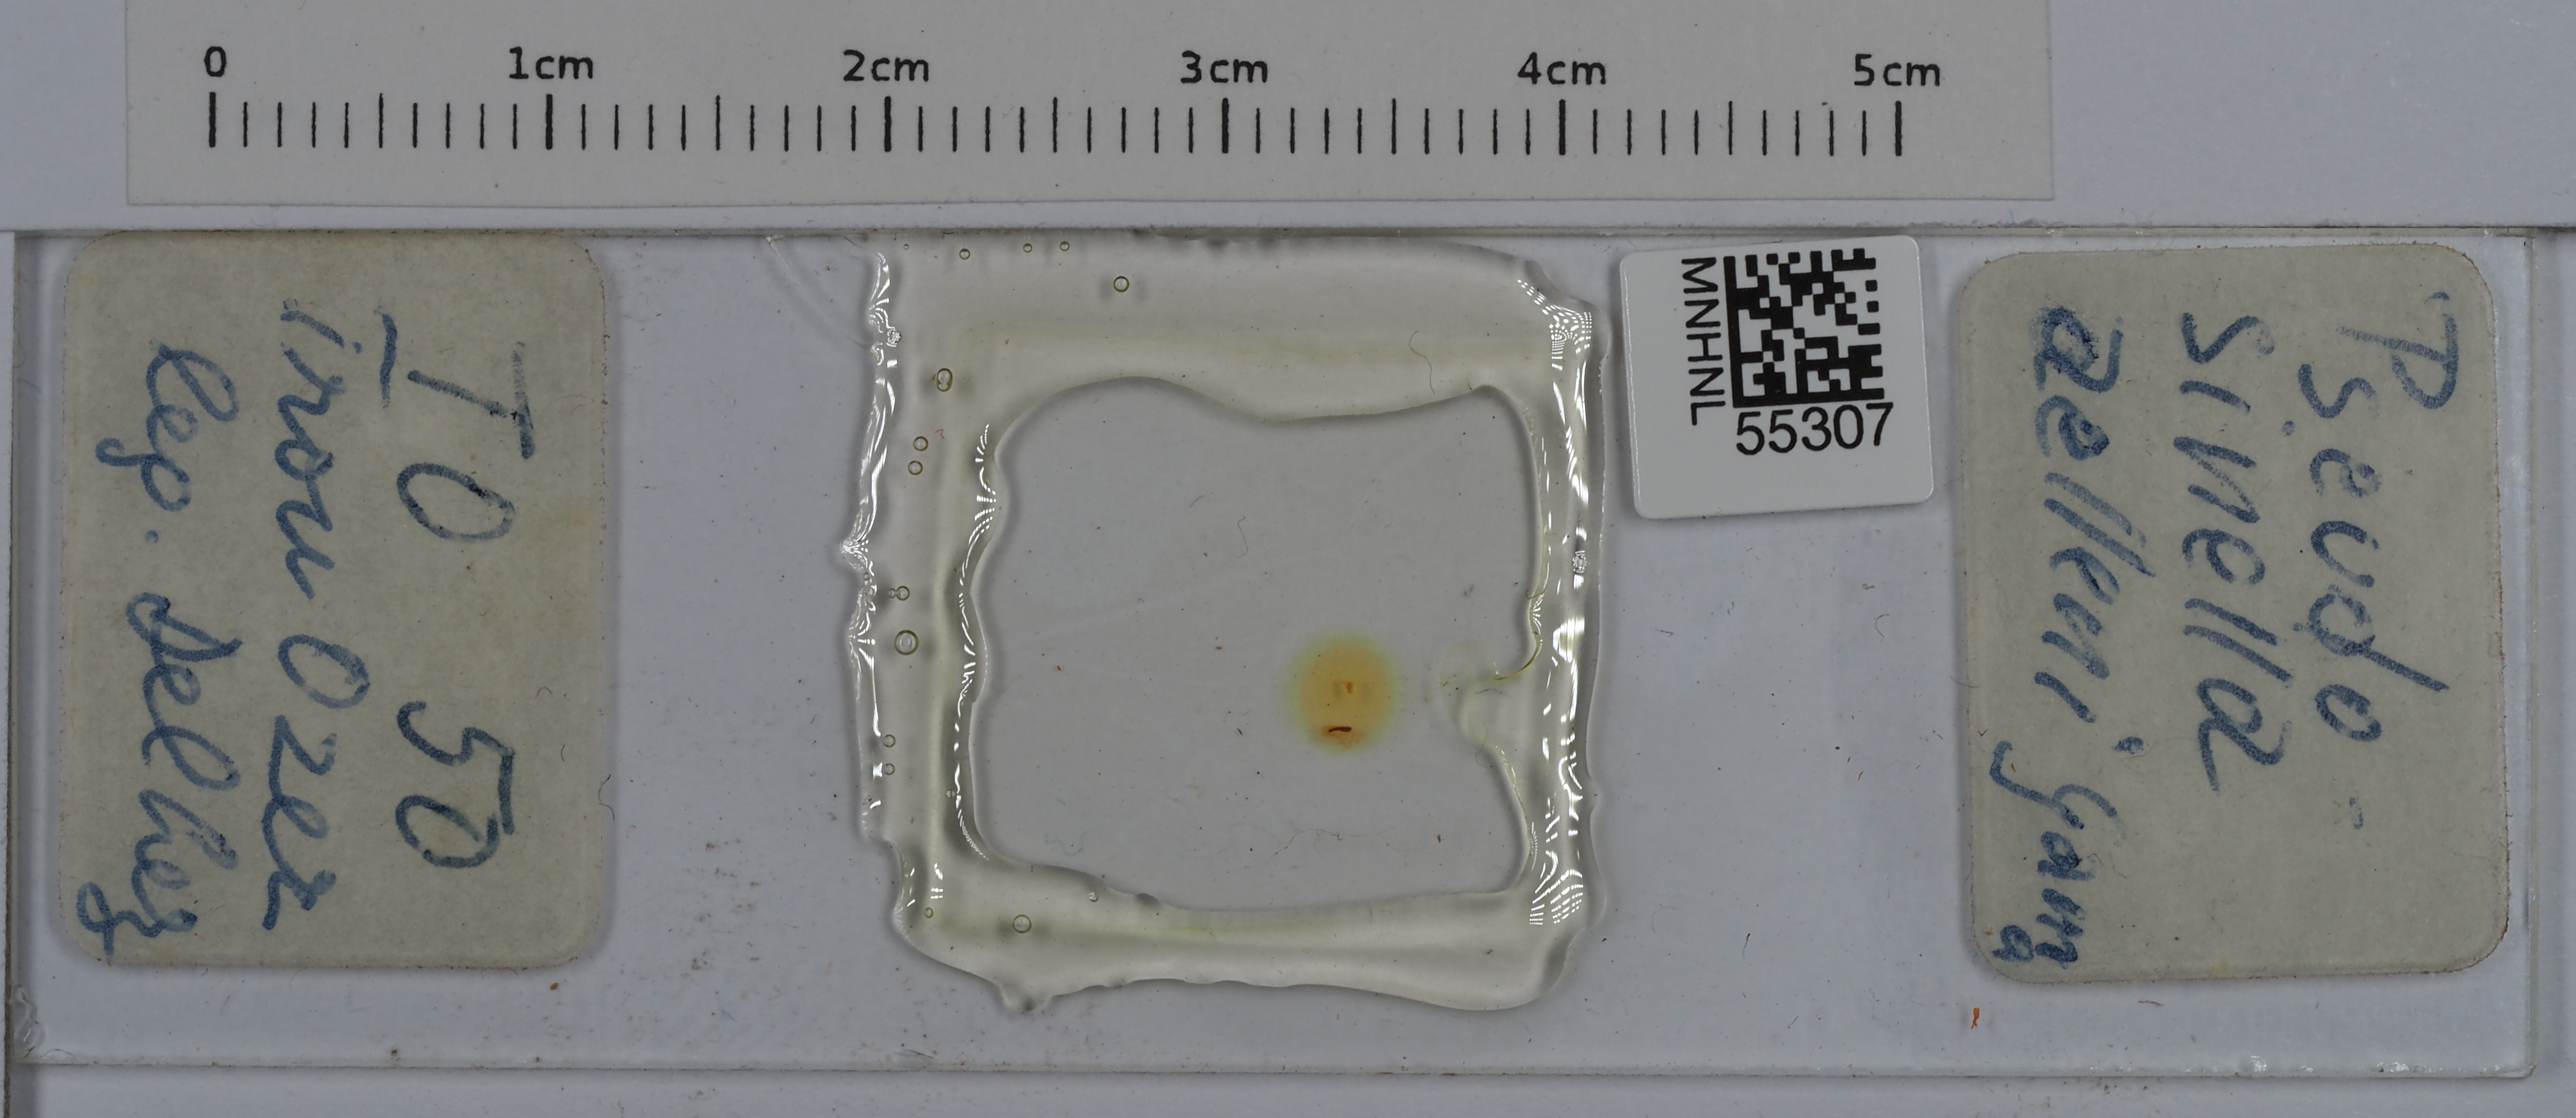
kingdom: Animalia
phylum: Arthropoda
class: Collembola
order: Entomobryomorpha
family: Entomobryidae
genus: Pseudosinella
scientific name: Pseudosinella aelleni
